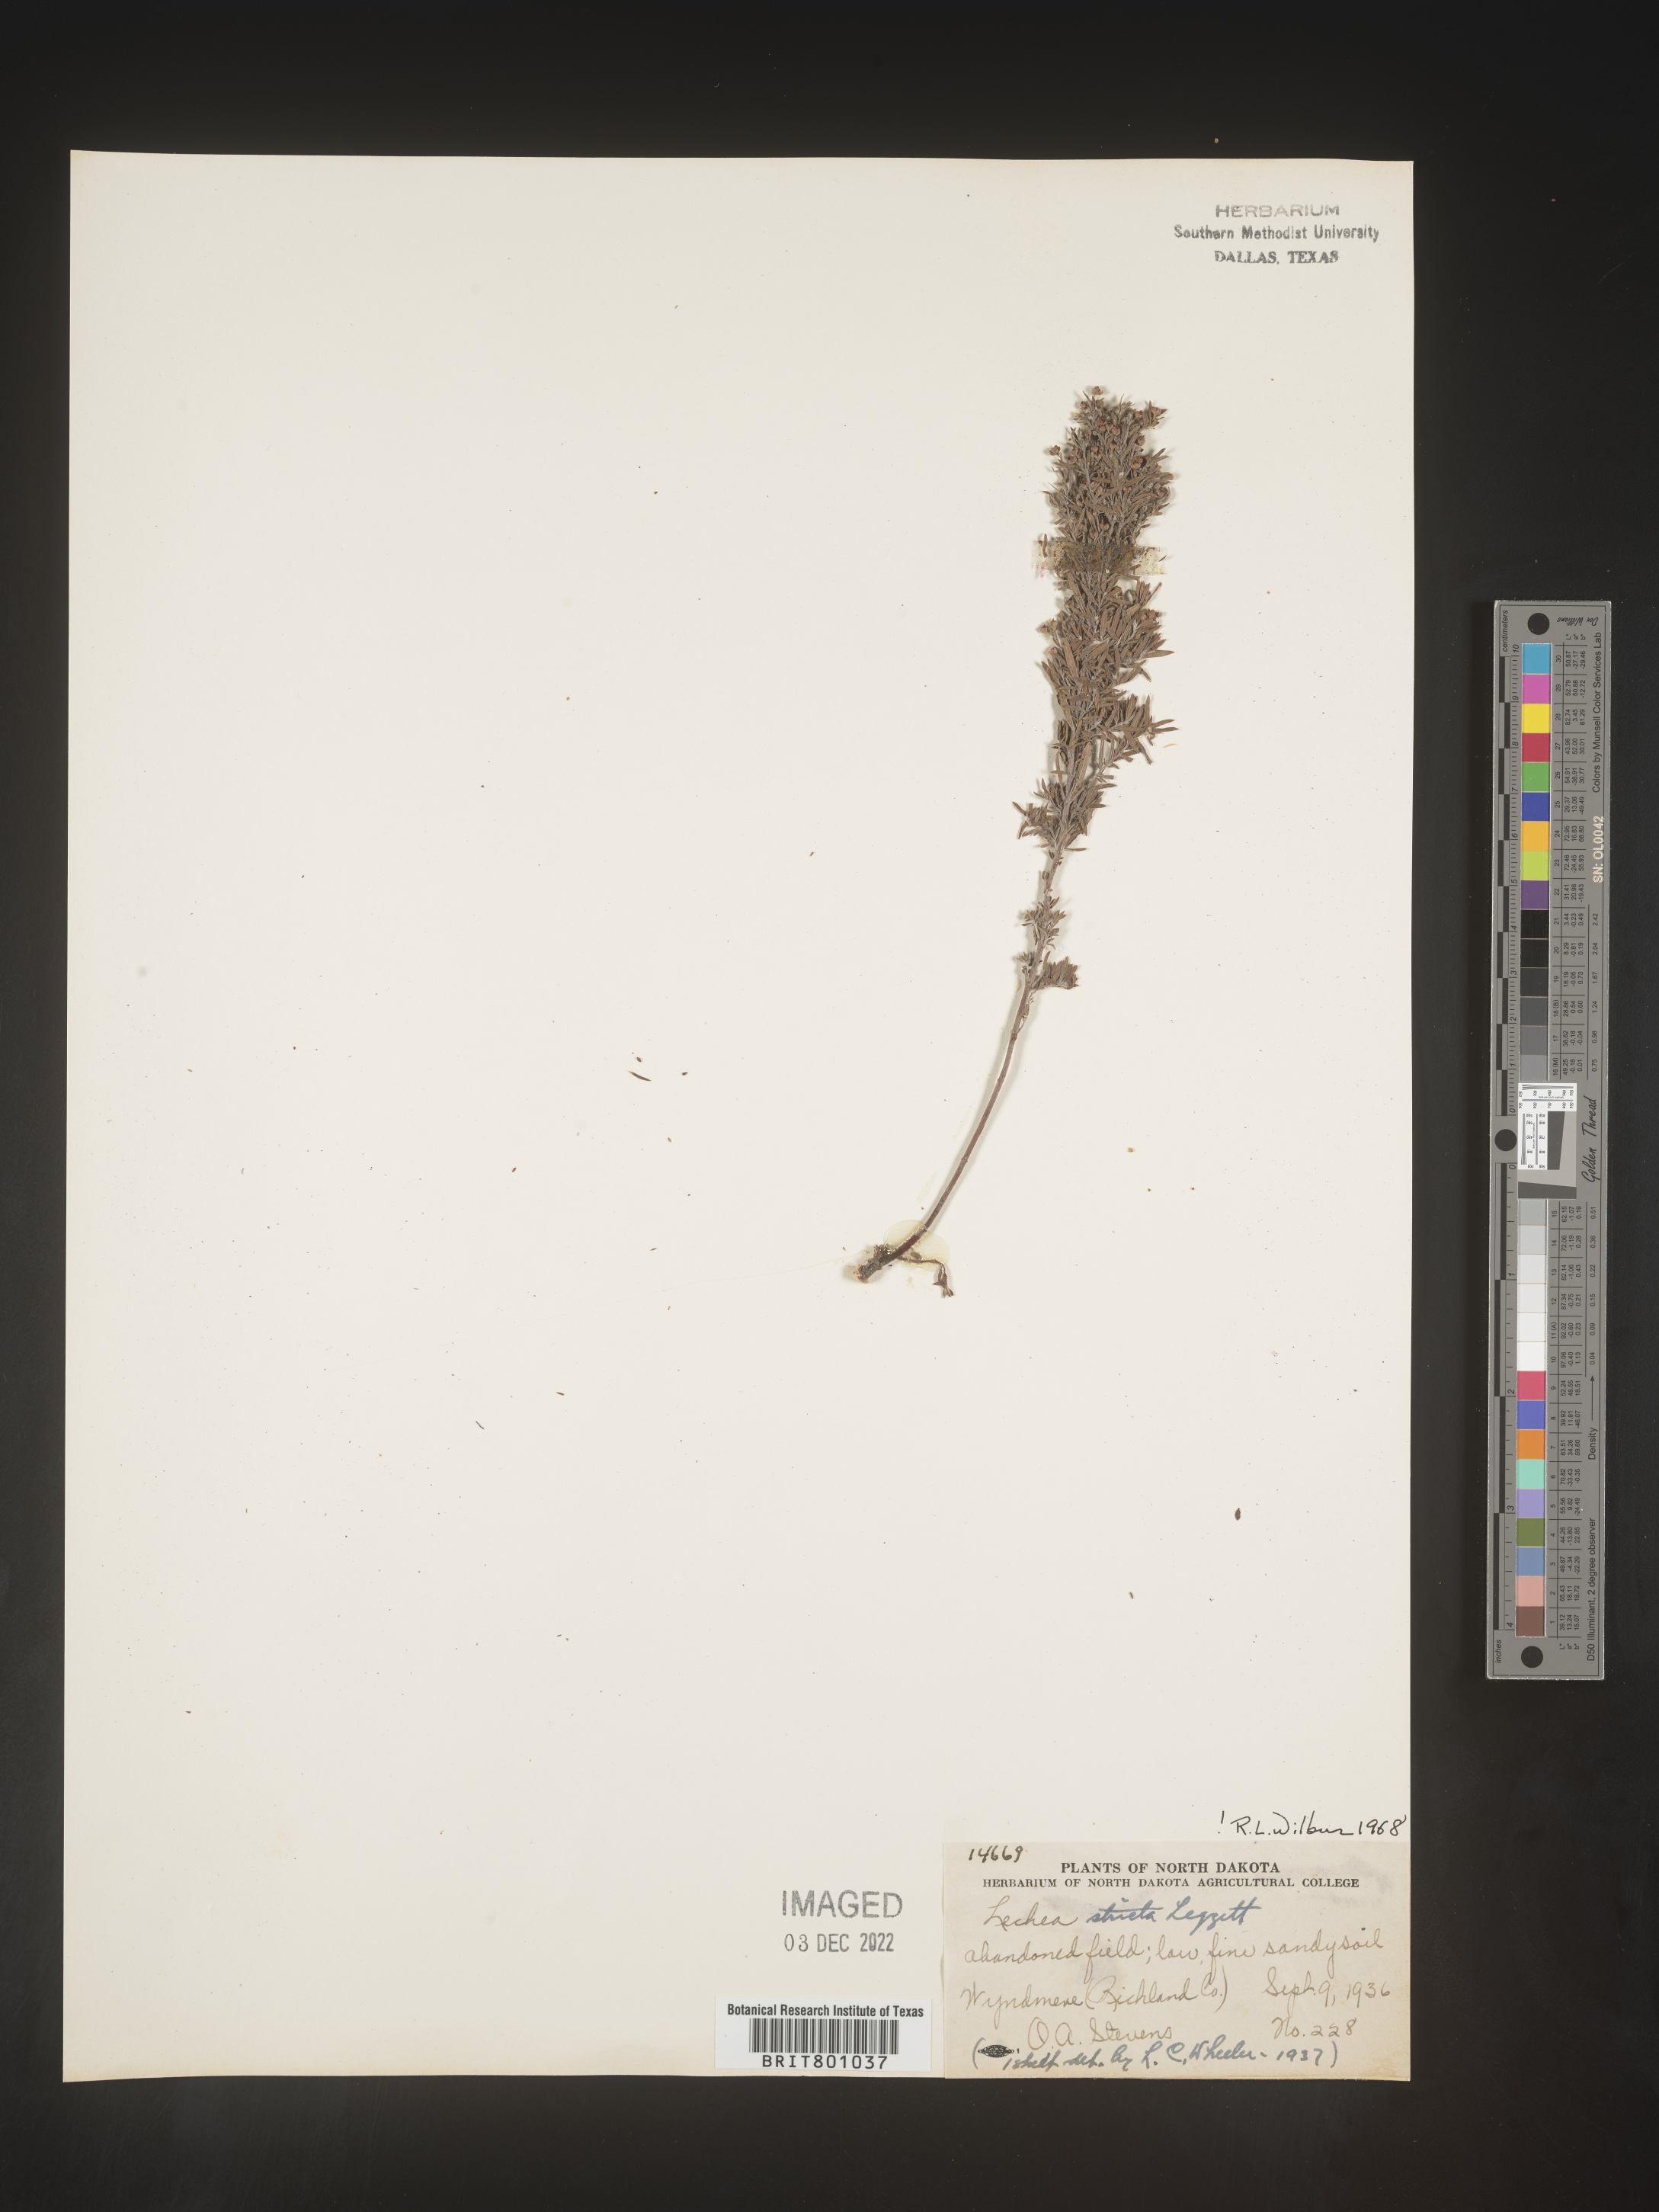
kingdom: Plantae
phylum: Tracheophyta
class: Magnoliopsida
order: Malvales
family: Cistaceae
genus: Lechea
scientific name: Lechea
